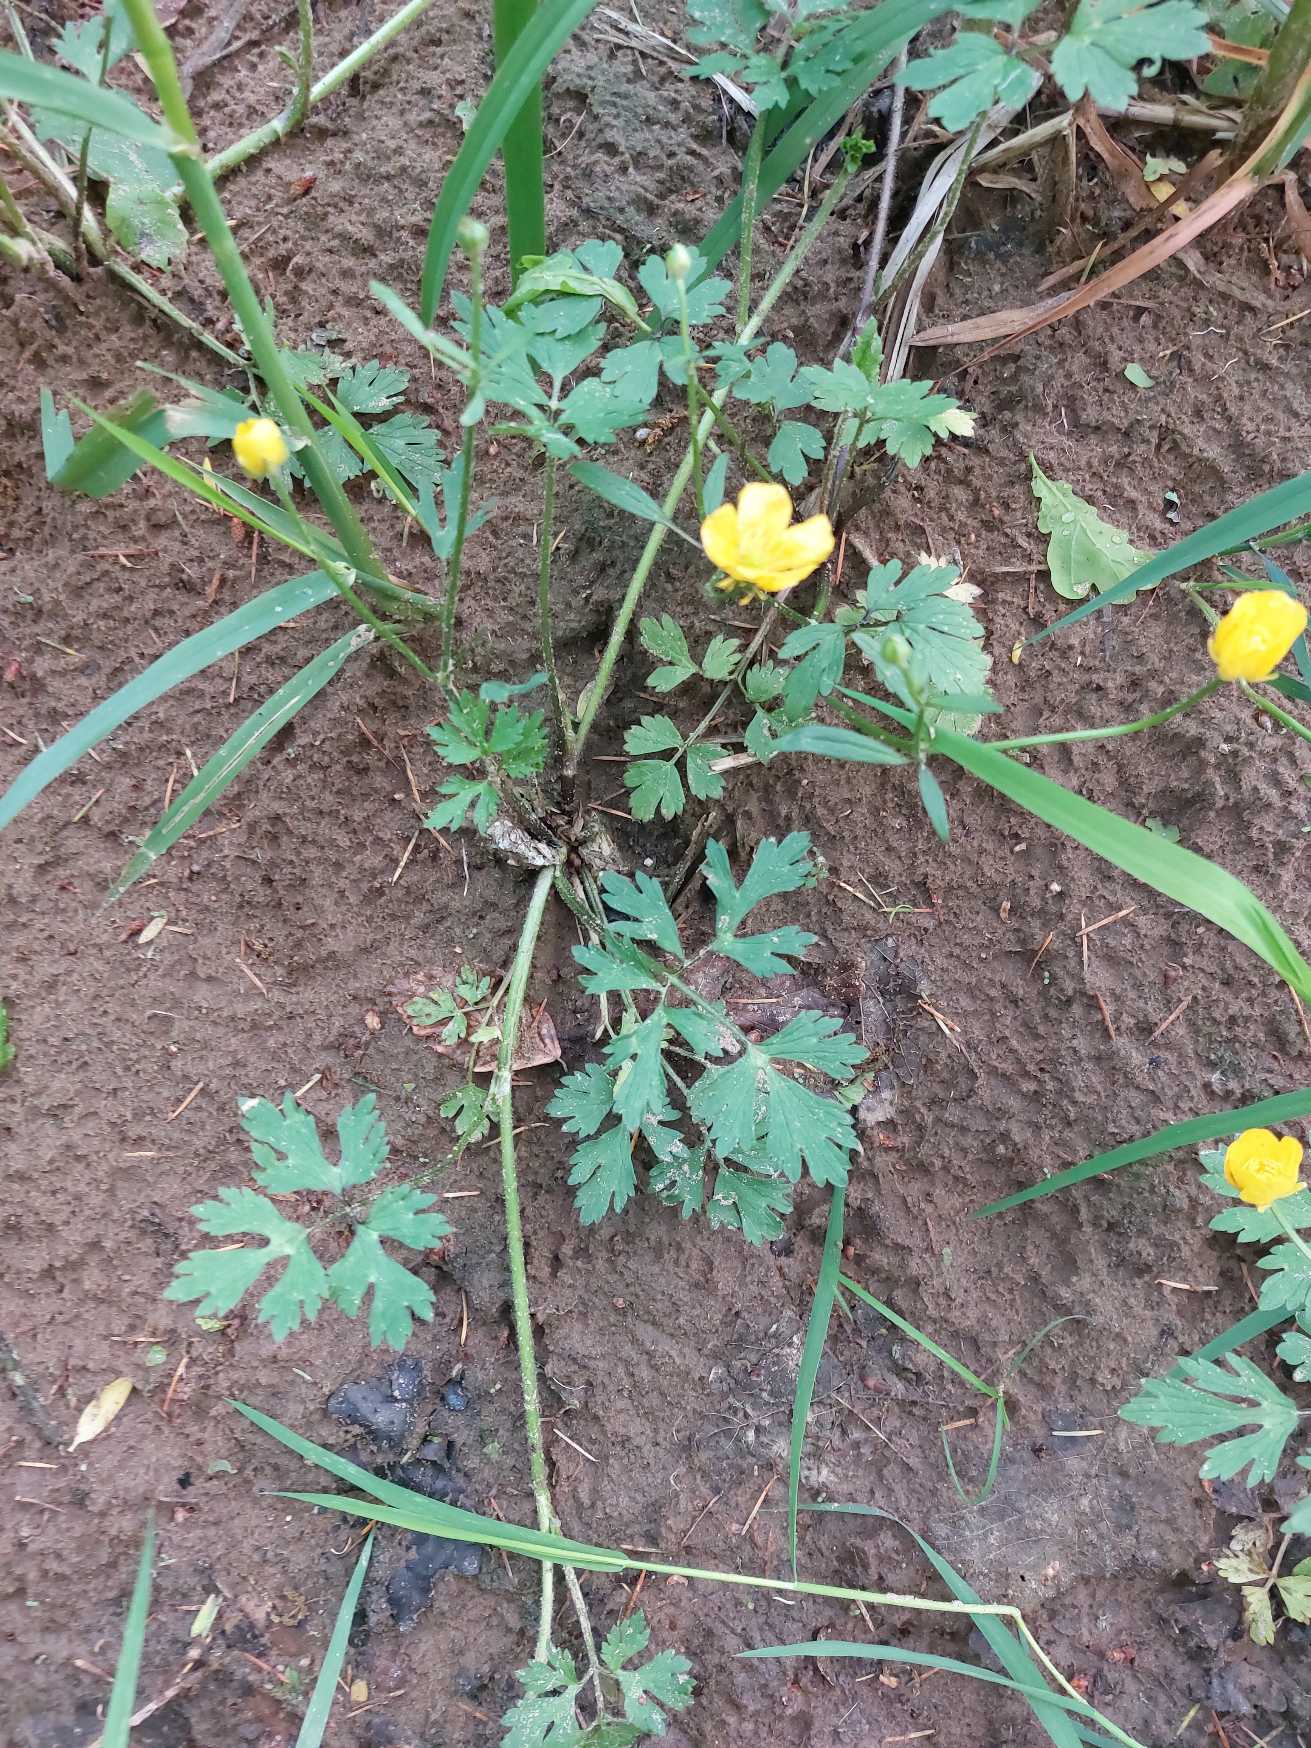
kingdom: Plantae
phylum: Tracheophyta
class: Magnoliopsida
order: Ranunculales
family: Ranunculaceae
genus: Ranunculus
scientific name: Ranunculus repens
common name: Lav ranunkel
